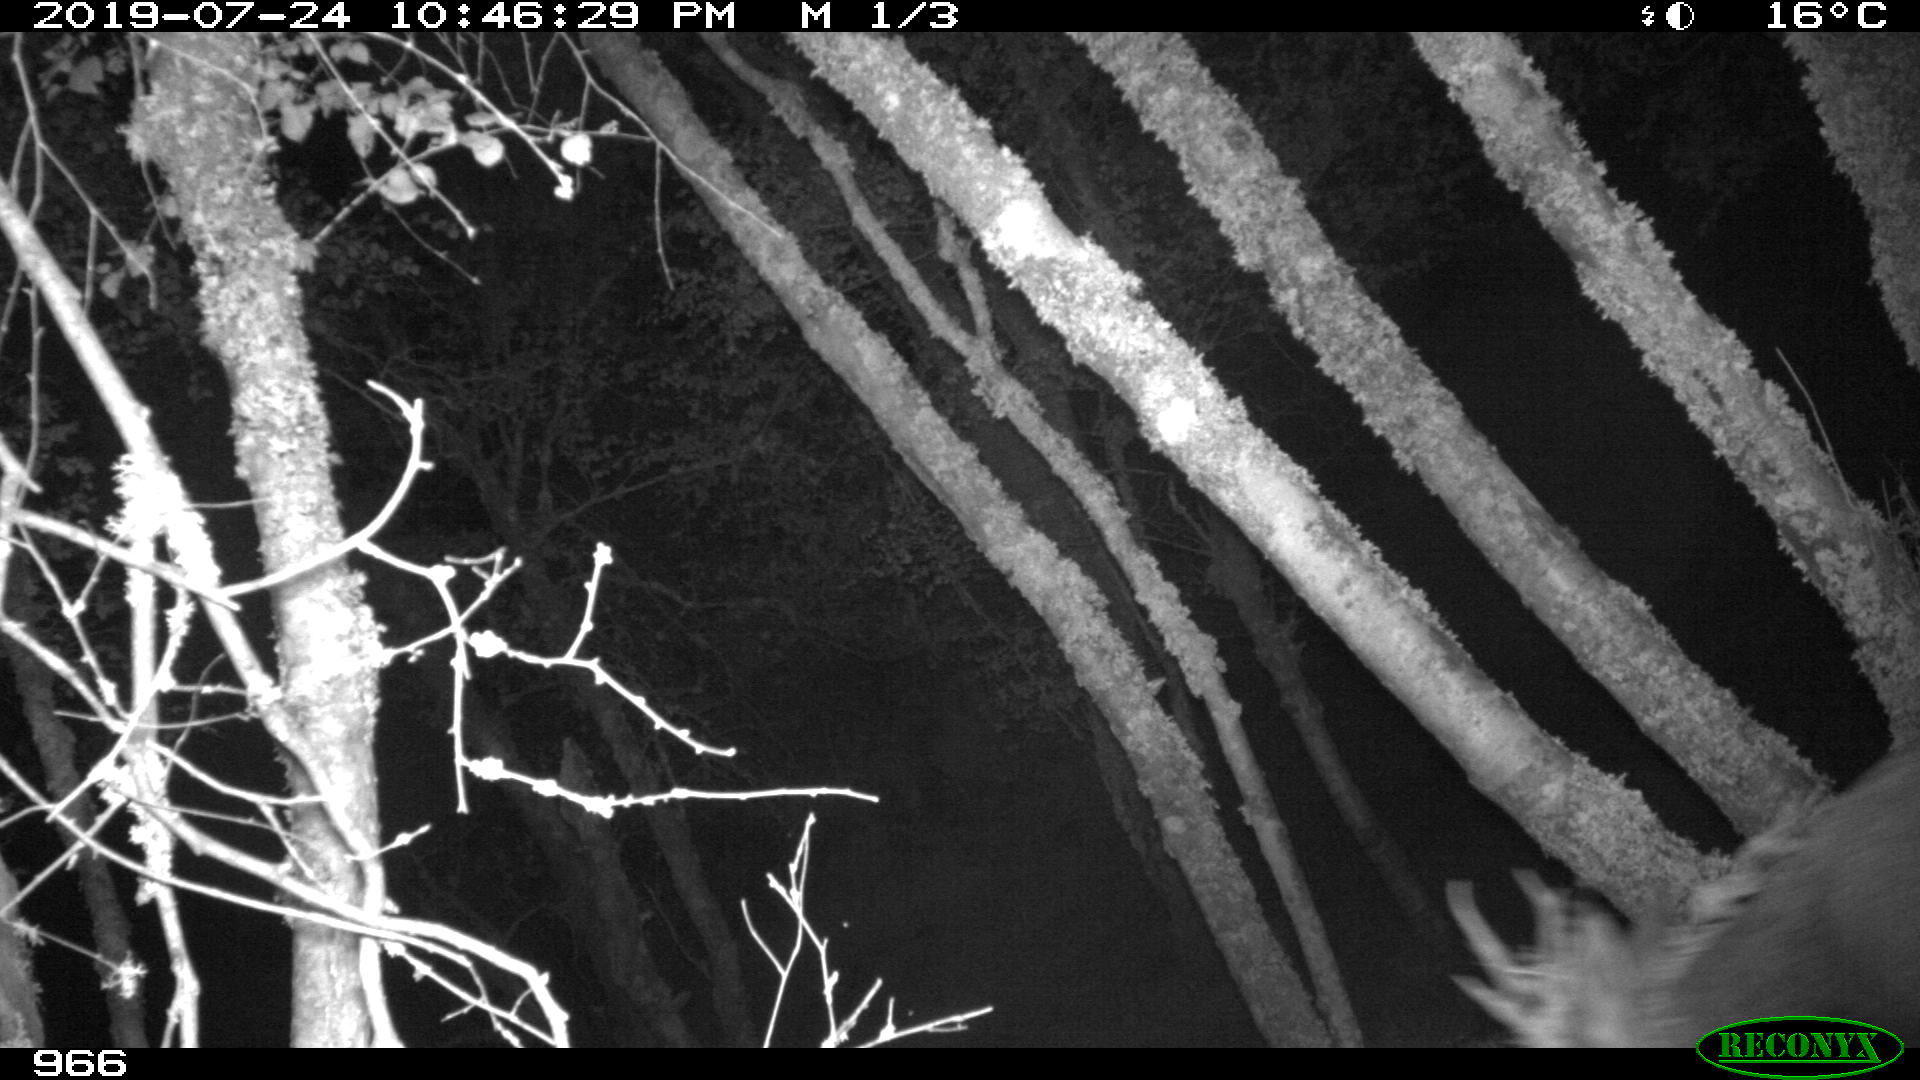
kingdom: Animalia
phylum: Chordata
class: Mammalia
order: Artiodactyla
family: Cervidae
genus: Capreolus
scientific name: Capreolus capreolus
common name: Western roe deer
